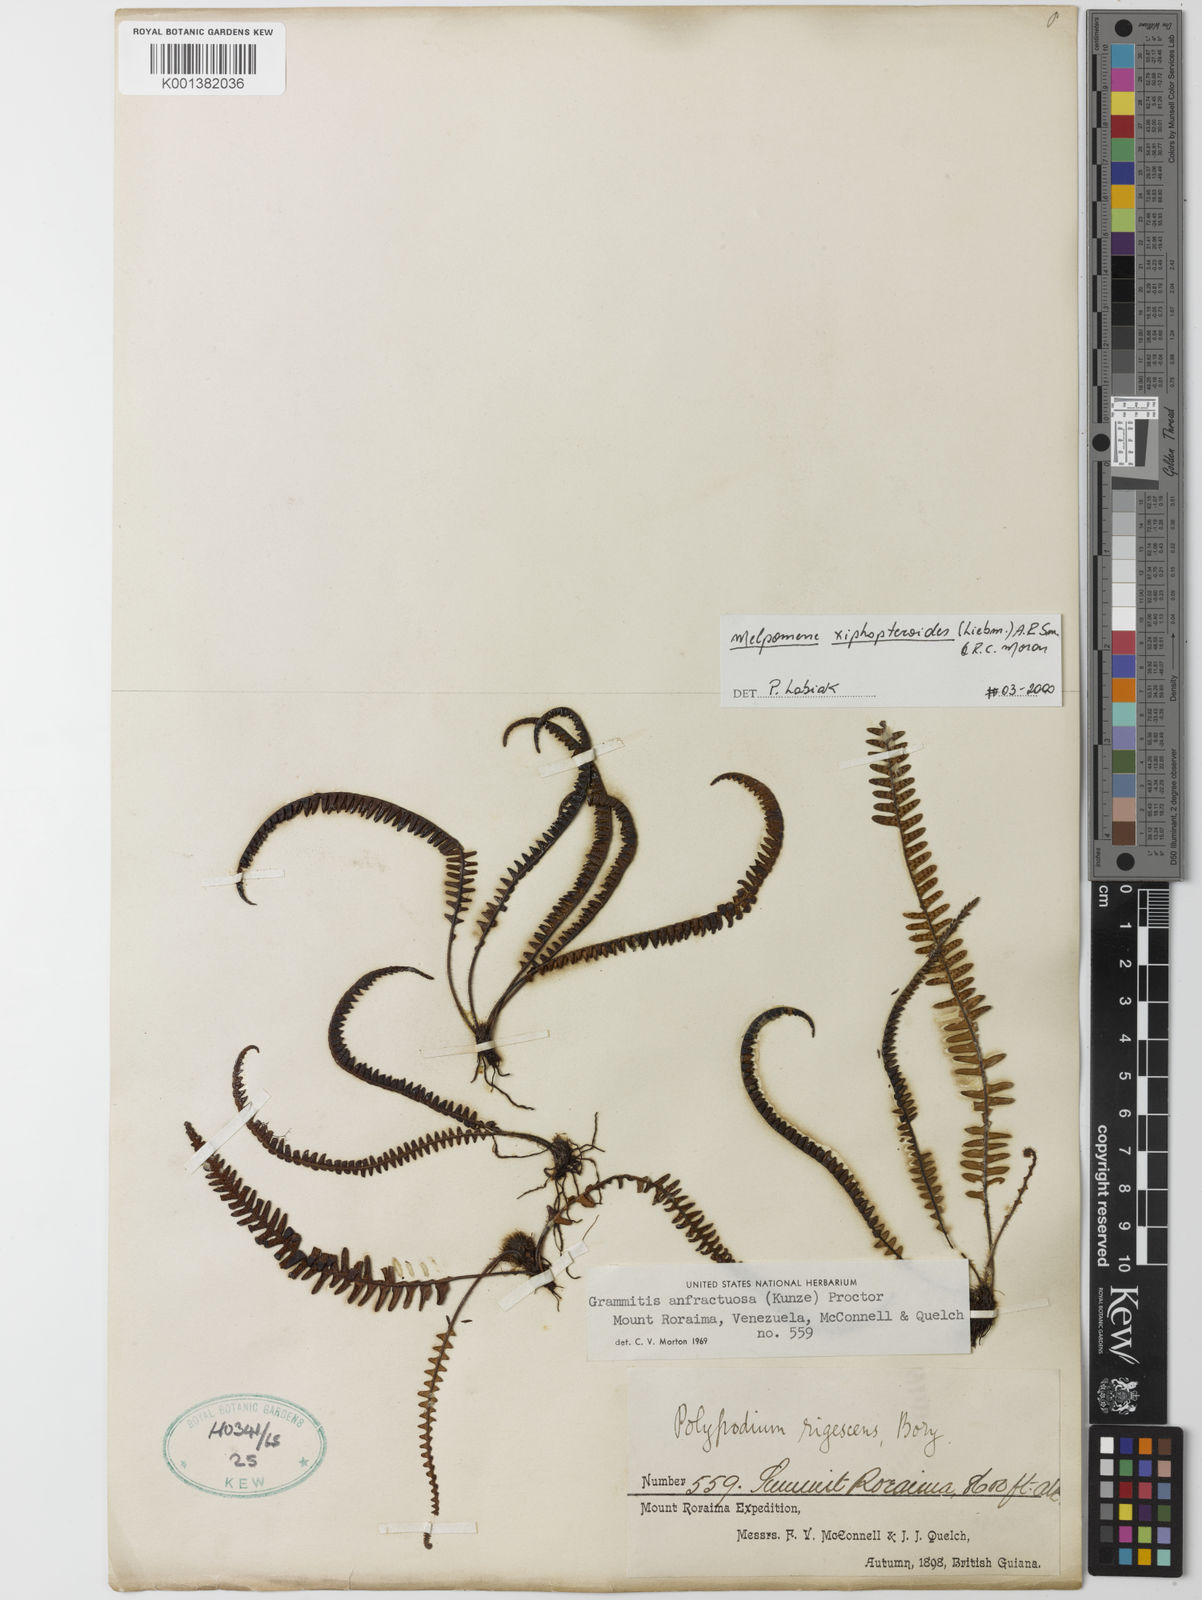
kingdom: Plantae
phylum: Tracheophyta
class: Polypodiopsida
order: Polypodiales
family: Polypodiaceae
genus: Melpomene
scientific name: Melpomene xiphopteroides
